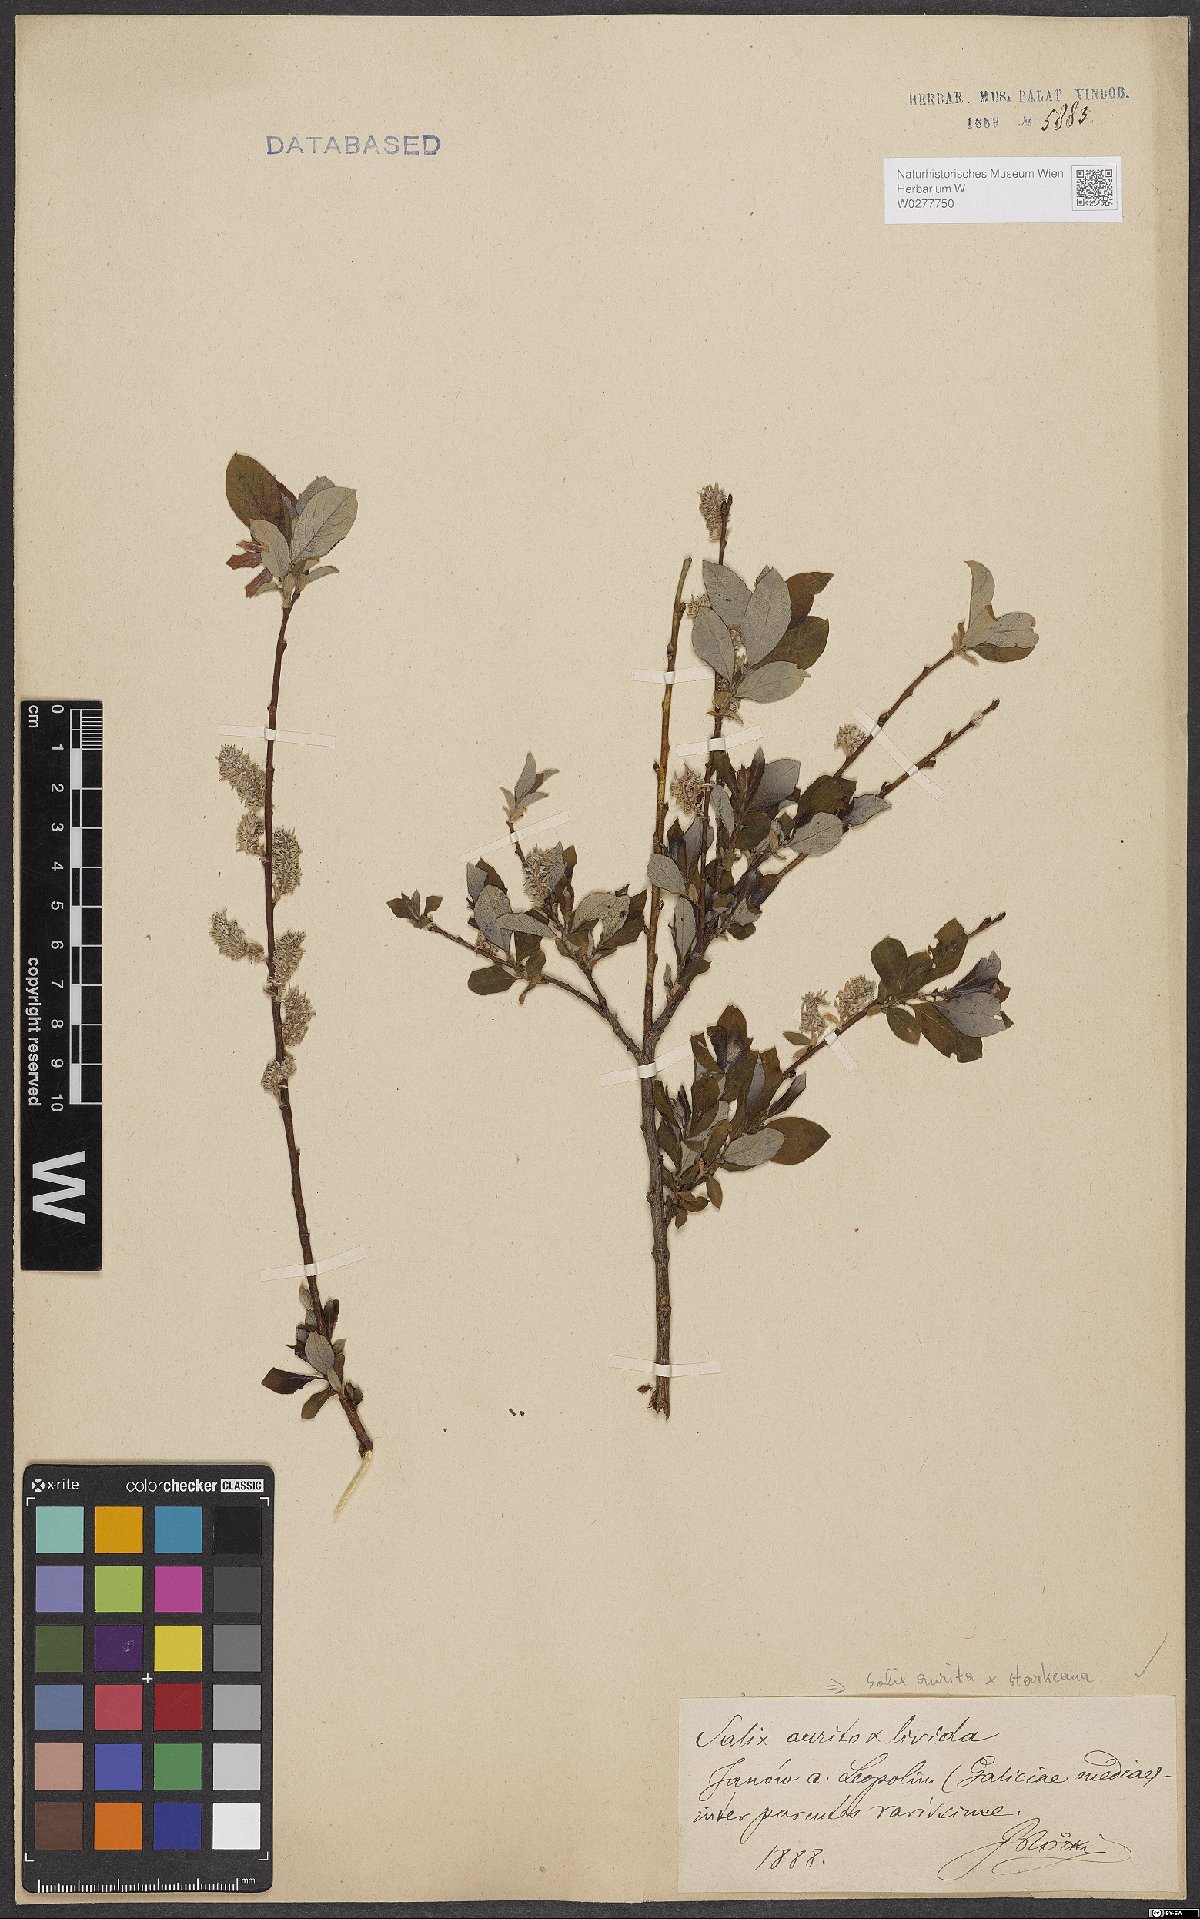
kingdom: Plantae
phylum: Tracheophyta
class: Magnoliopsida
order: Malpighiales
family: Salicaceae
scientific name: Salicaceae
